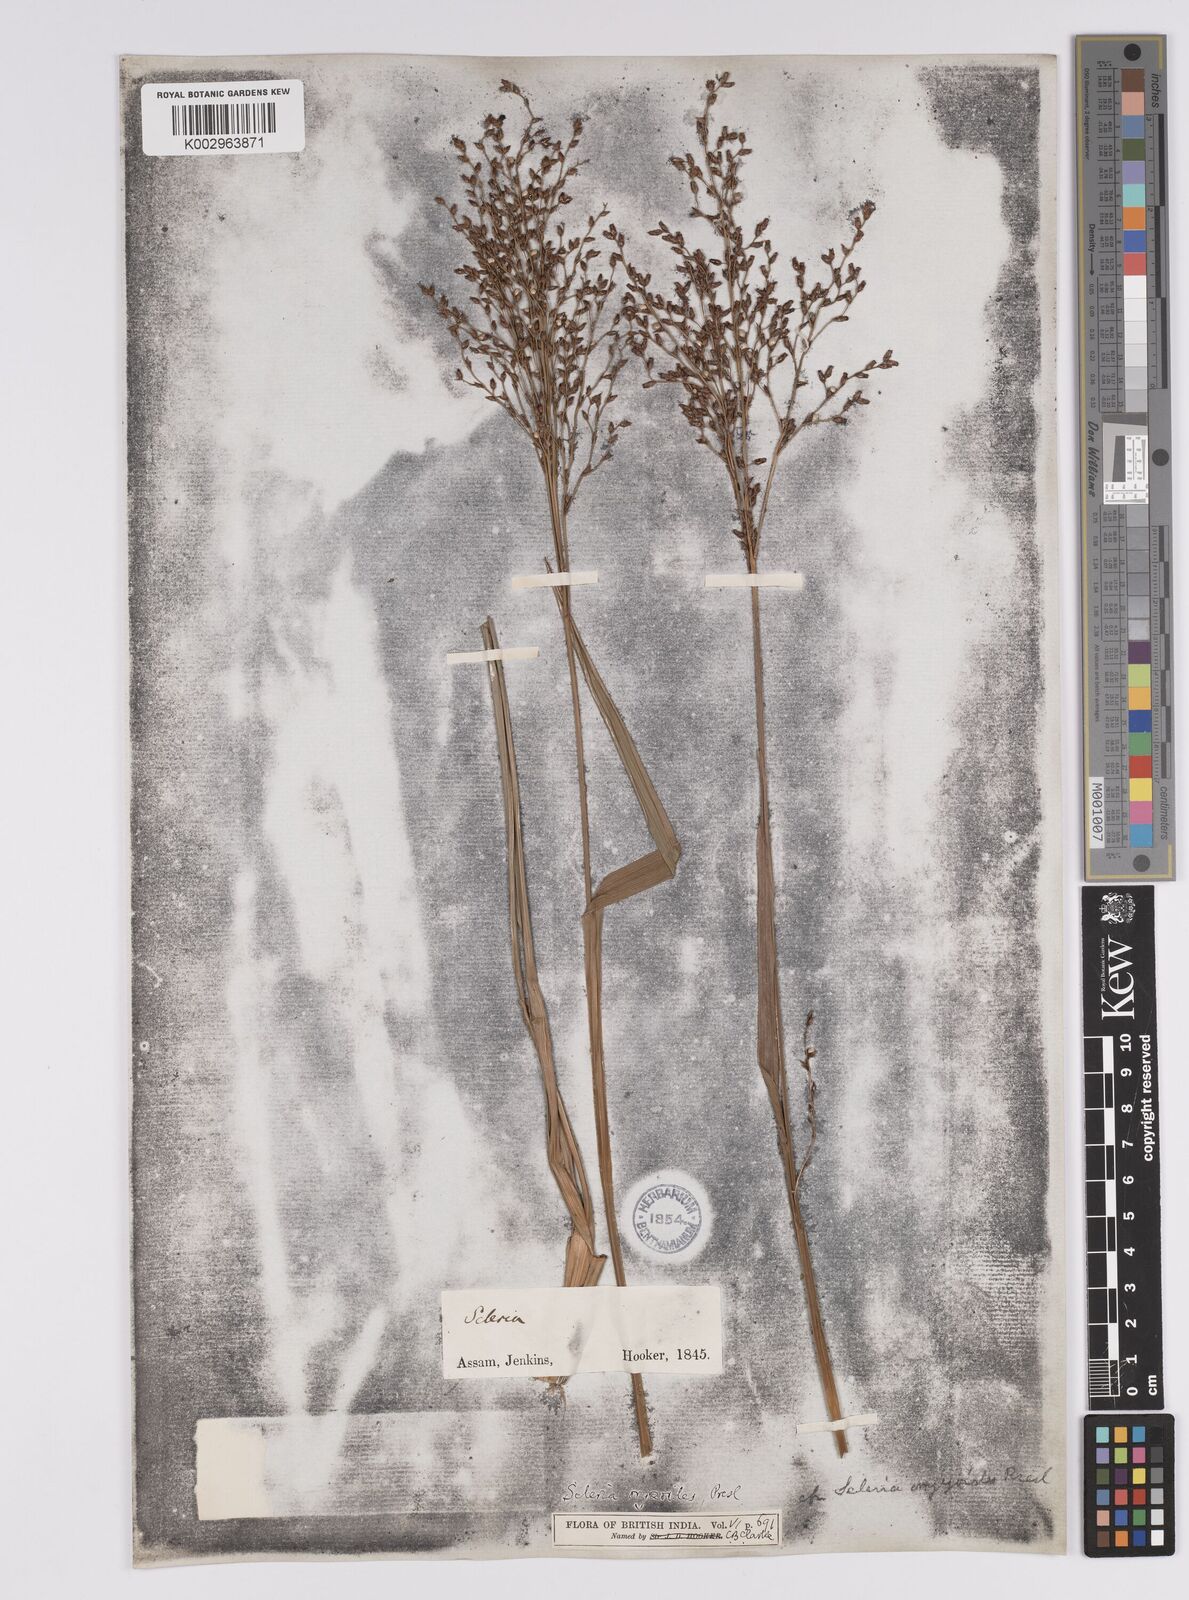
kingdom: Plantae
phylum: Tracheophyta
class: Liliopsida
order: Poales
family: Cyperaceae
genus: Scleria
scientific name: Scleria poiformis
